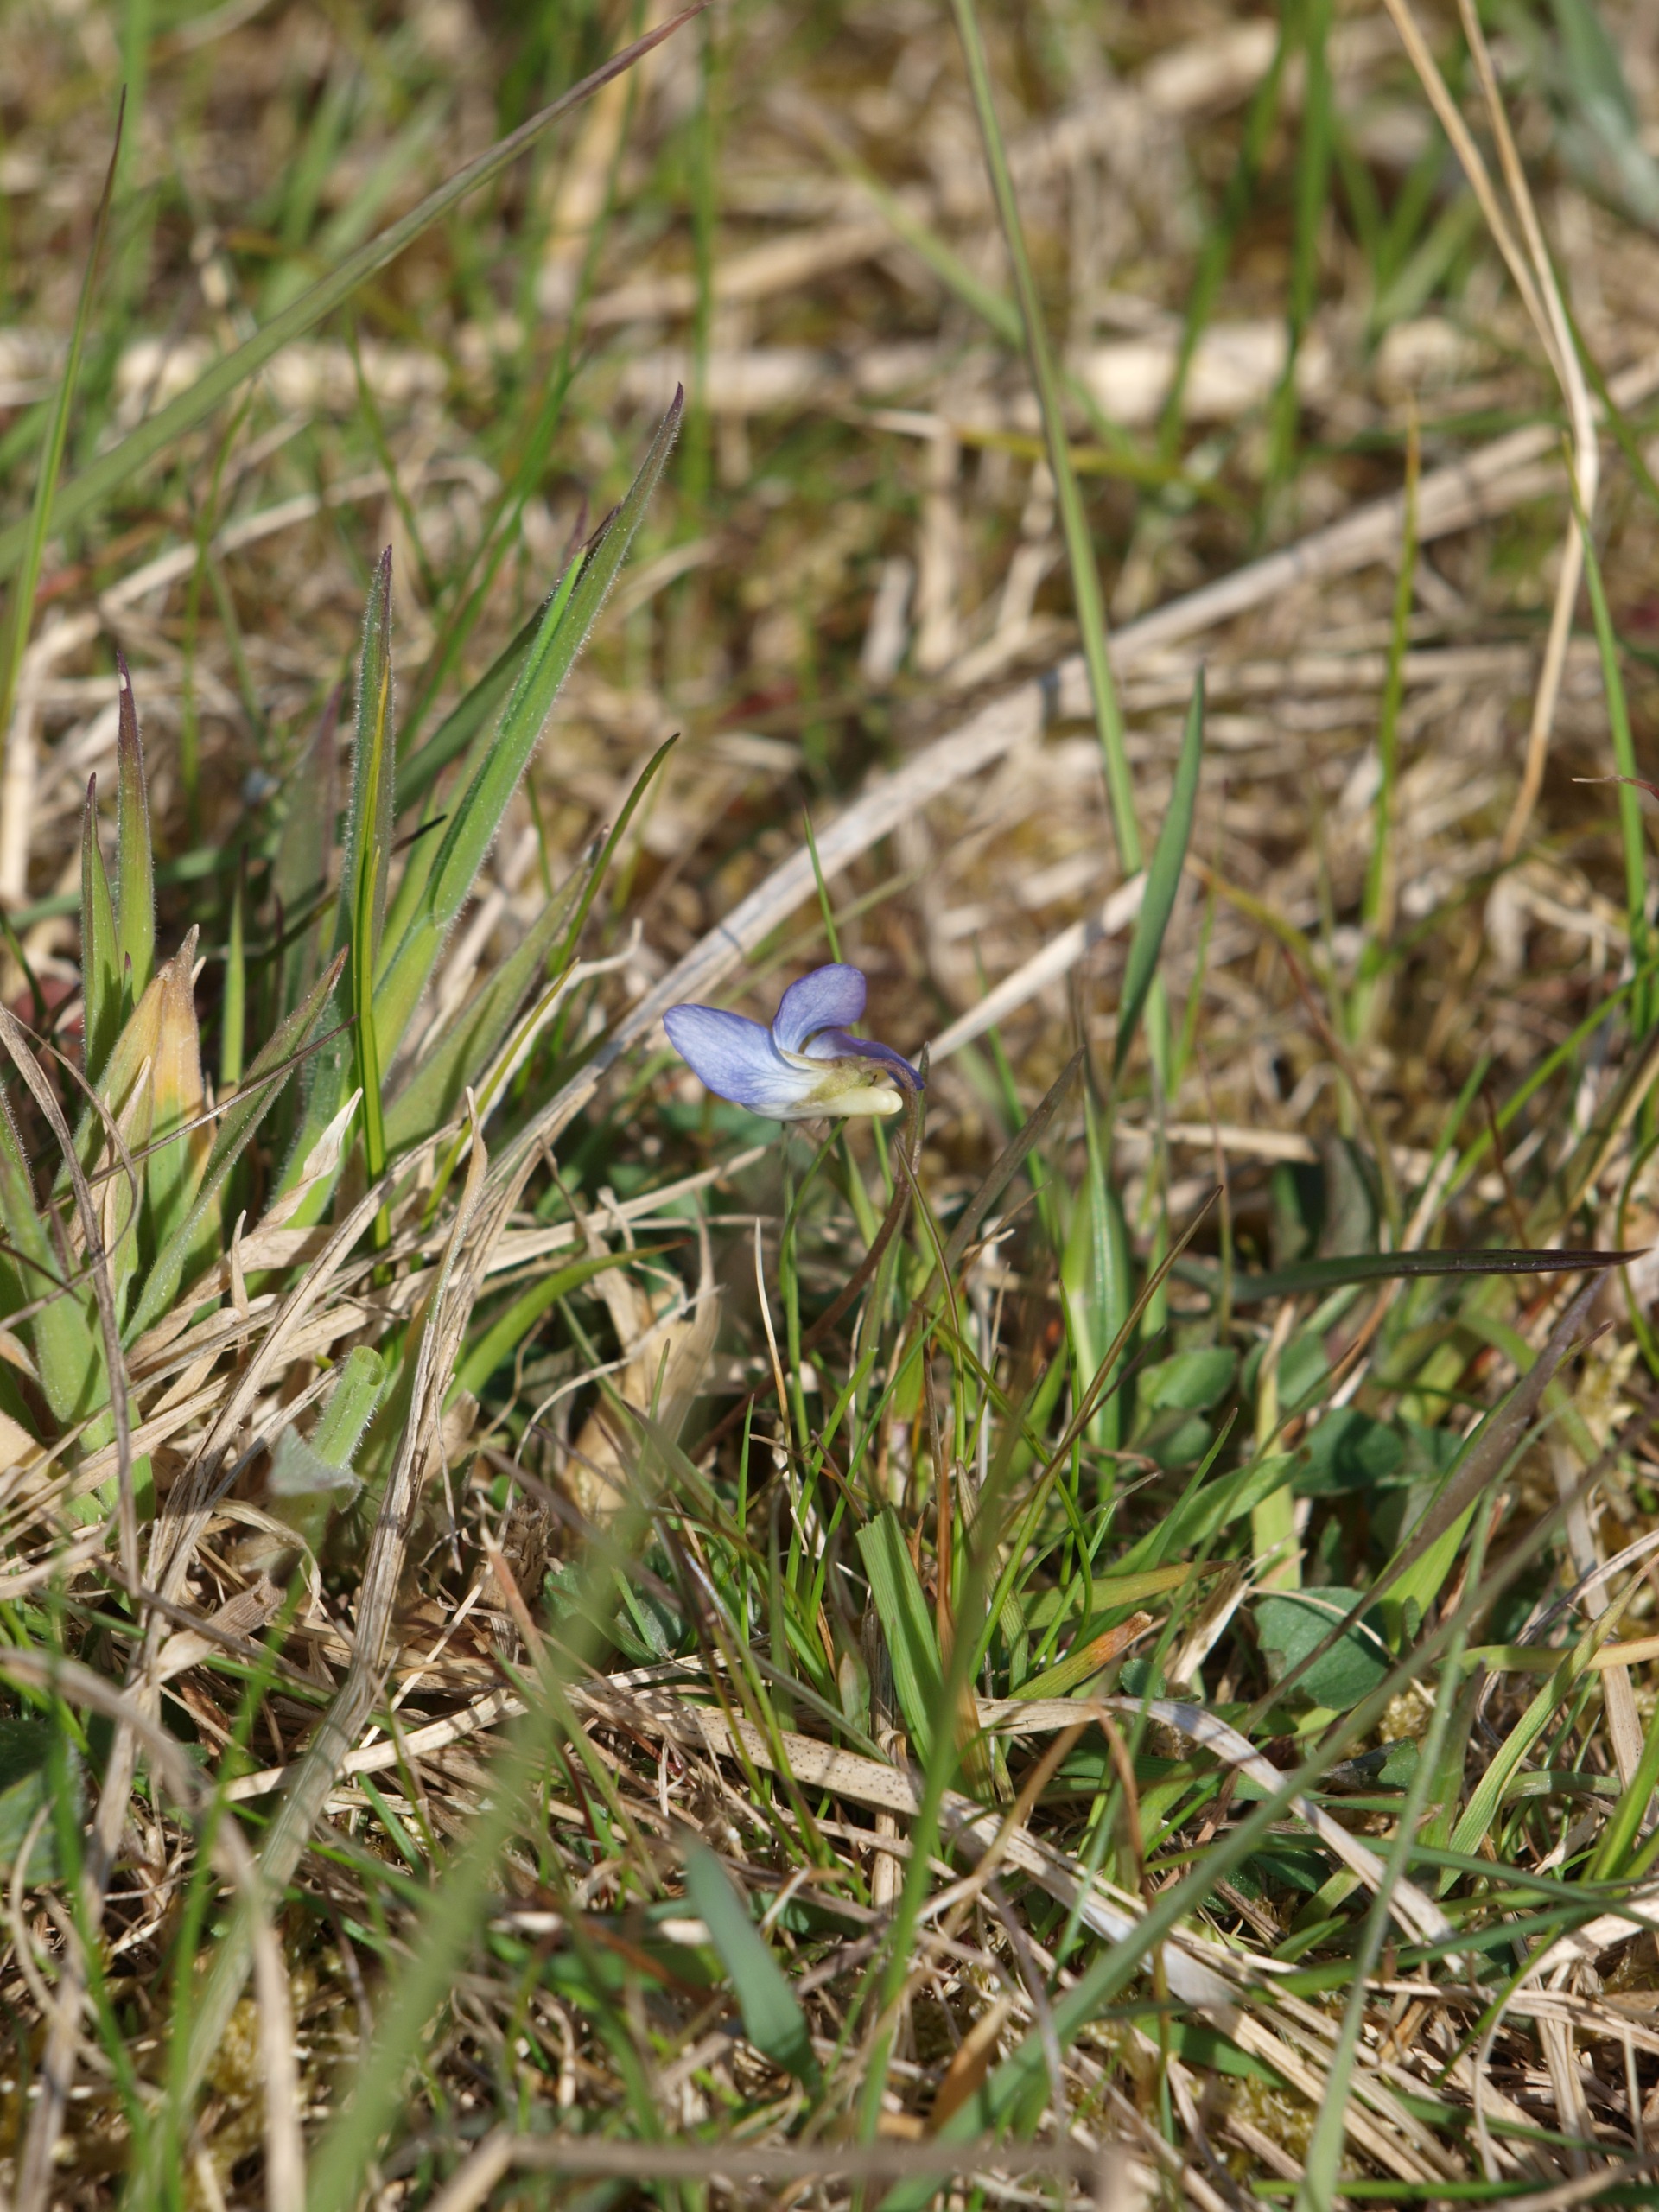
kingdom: Plantae
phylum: Tracheophyta
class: Magnoliopsida
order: Malpighiales
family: Violaceae
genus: Viola
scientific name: Viola canina
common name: Hunde-viol
